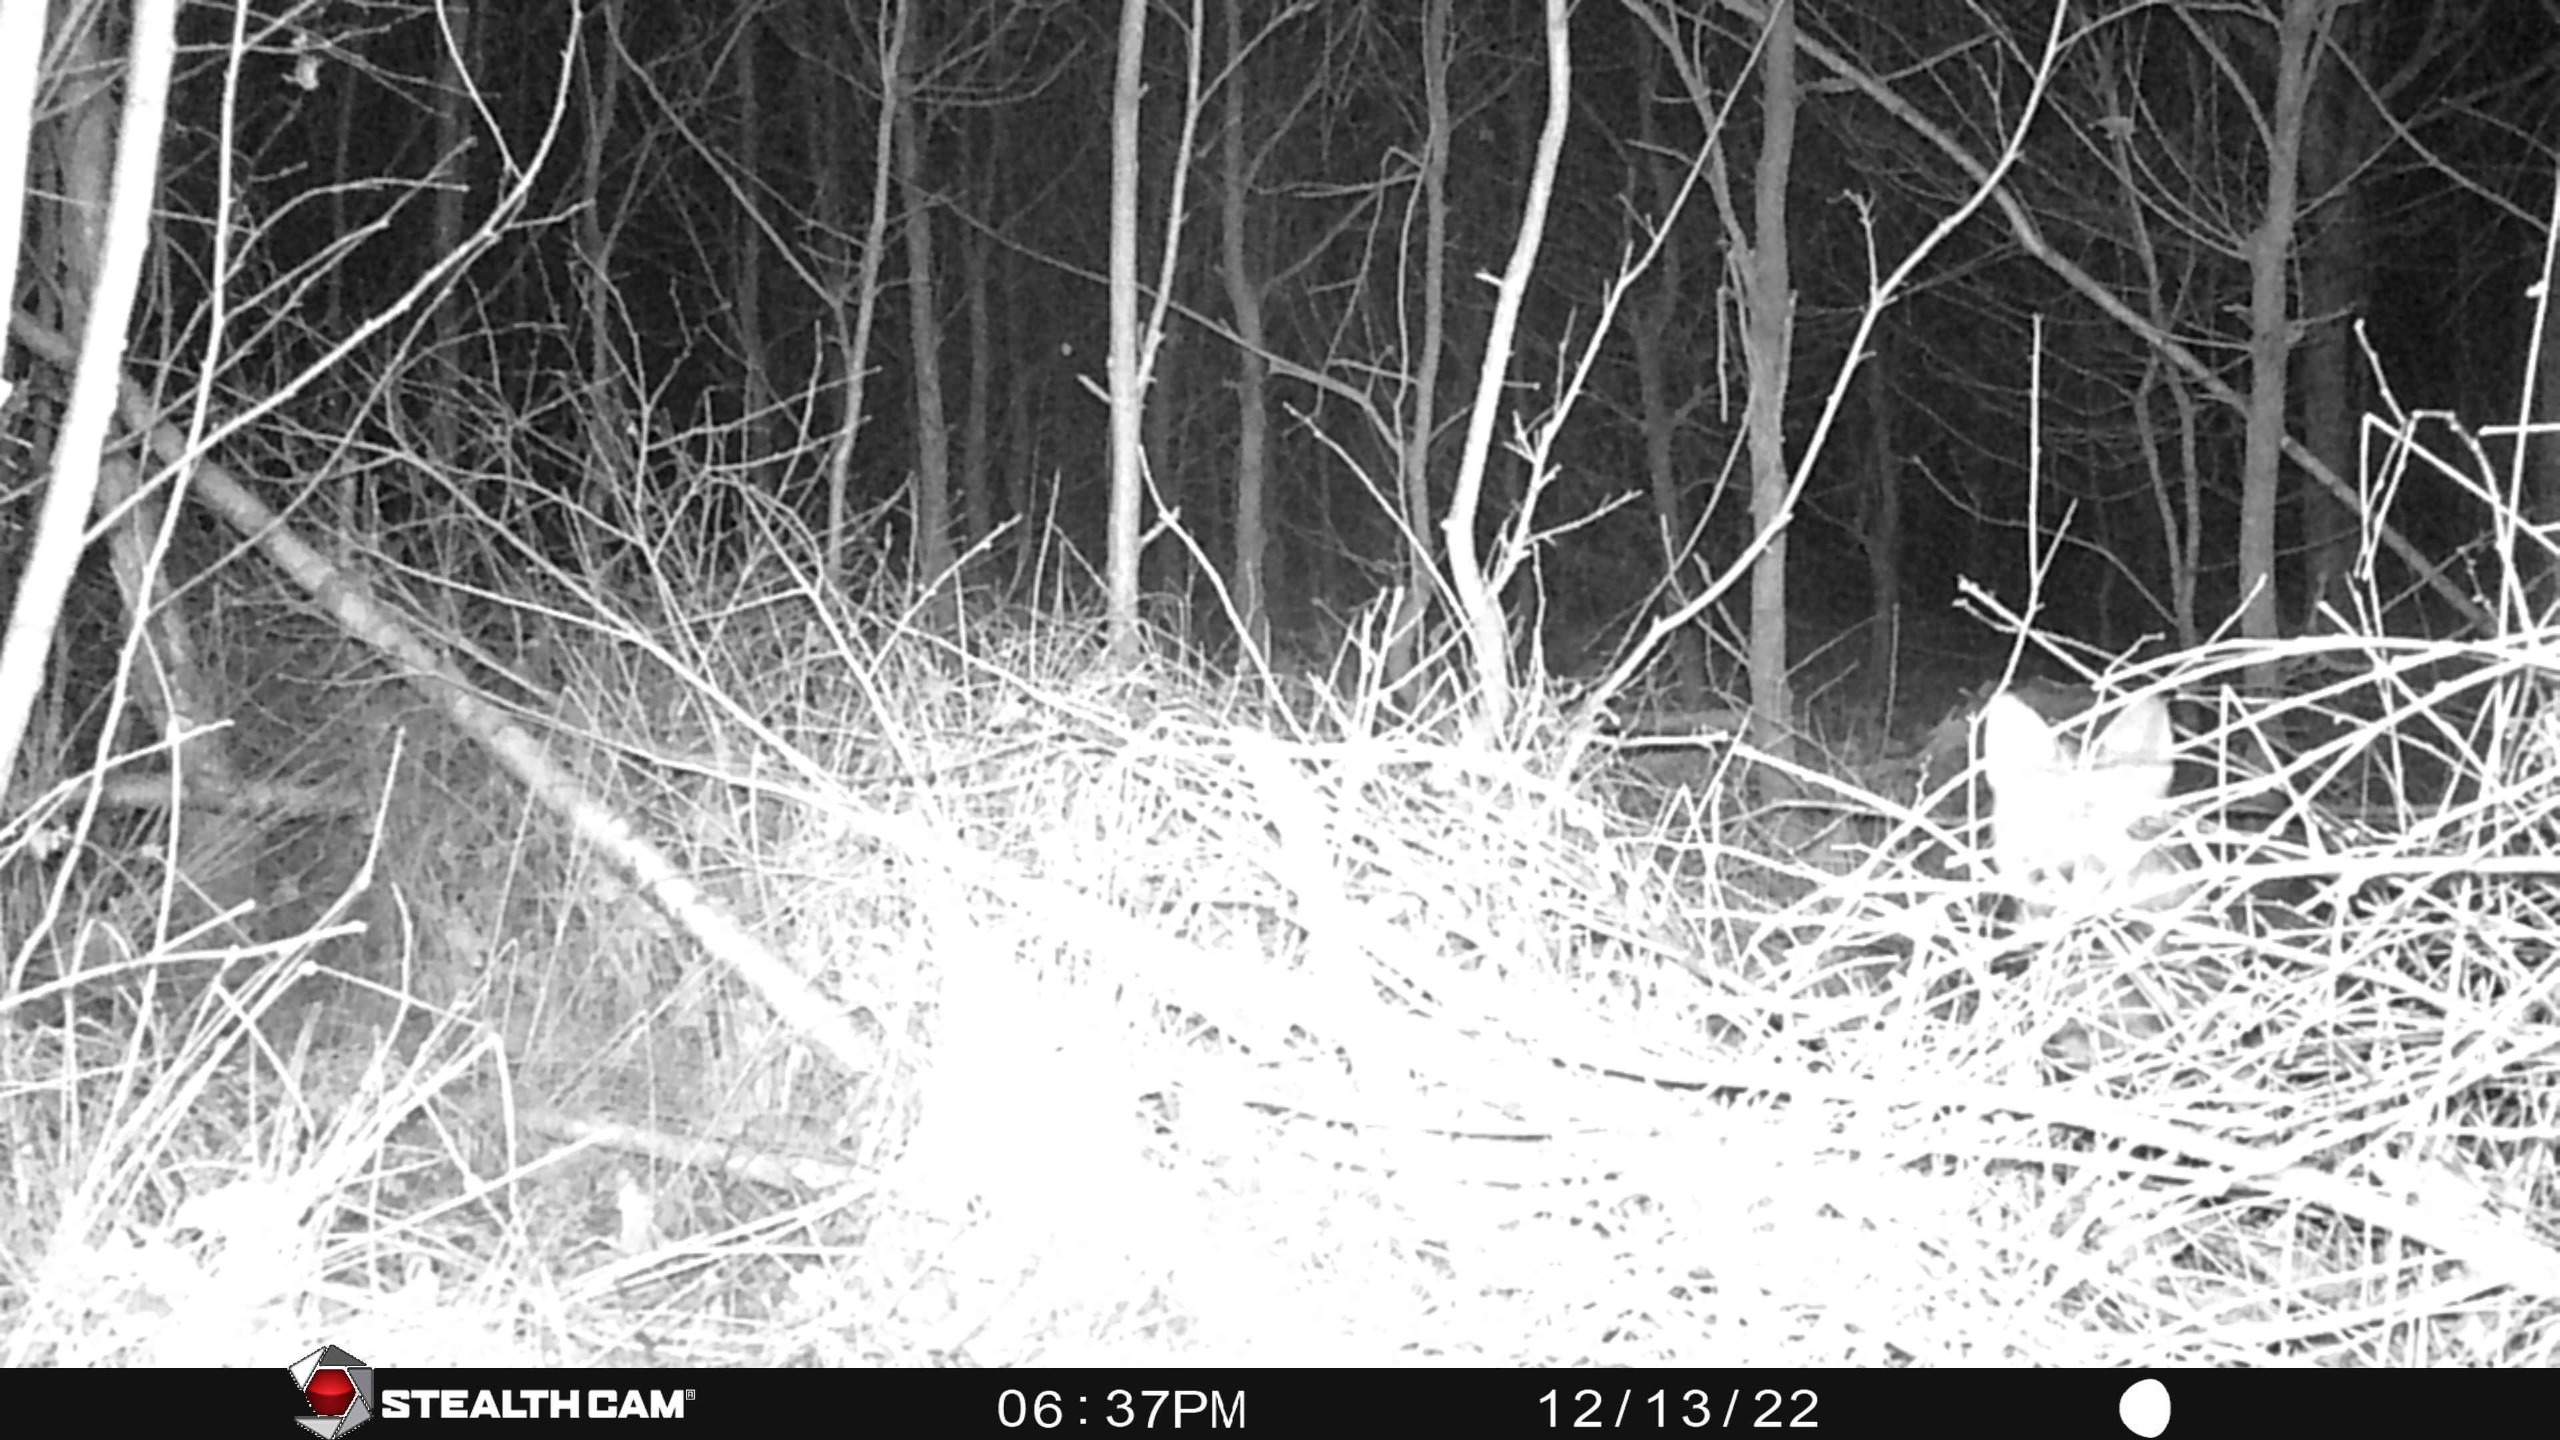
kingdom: Animalia
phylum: Chordata
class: Mammalia
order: Carnivora
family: Canidae
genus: Vulpes
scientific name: Vulpes vulpes
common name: Ræv
